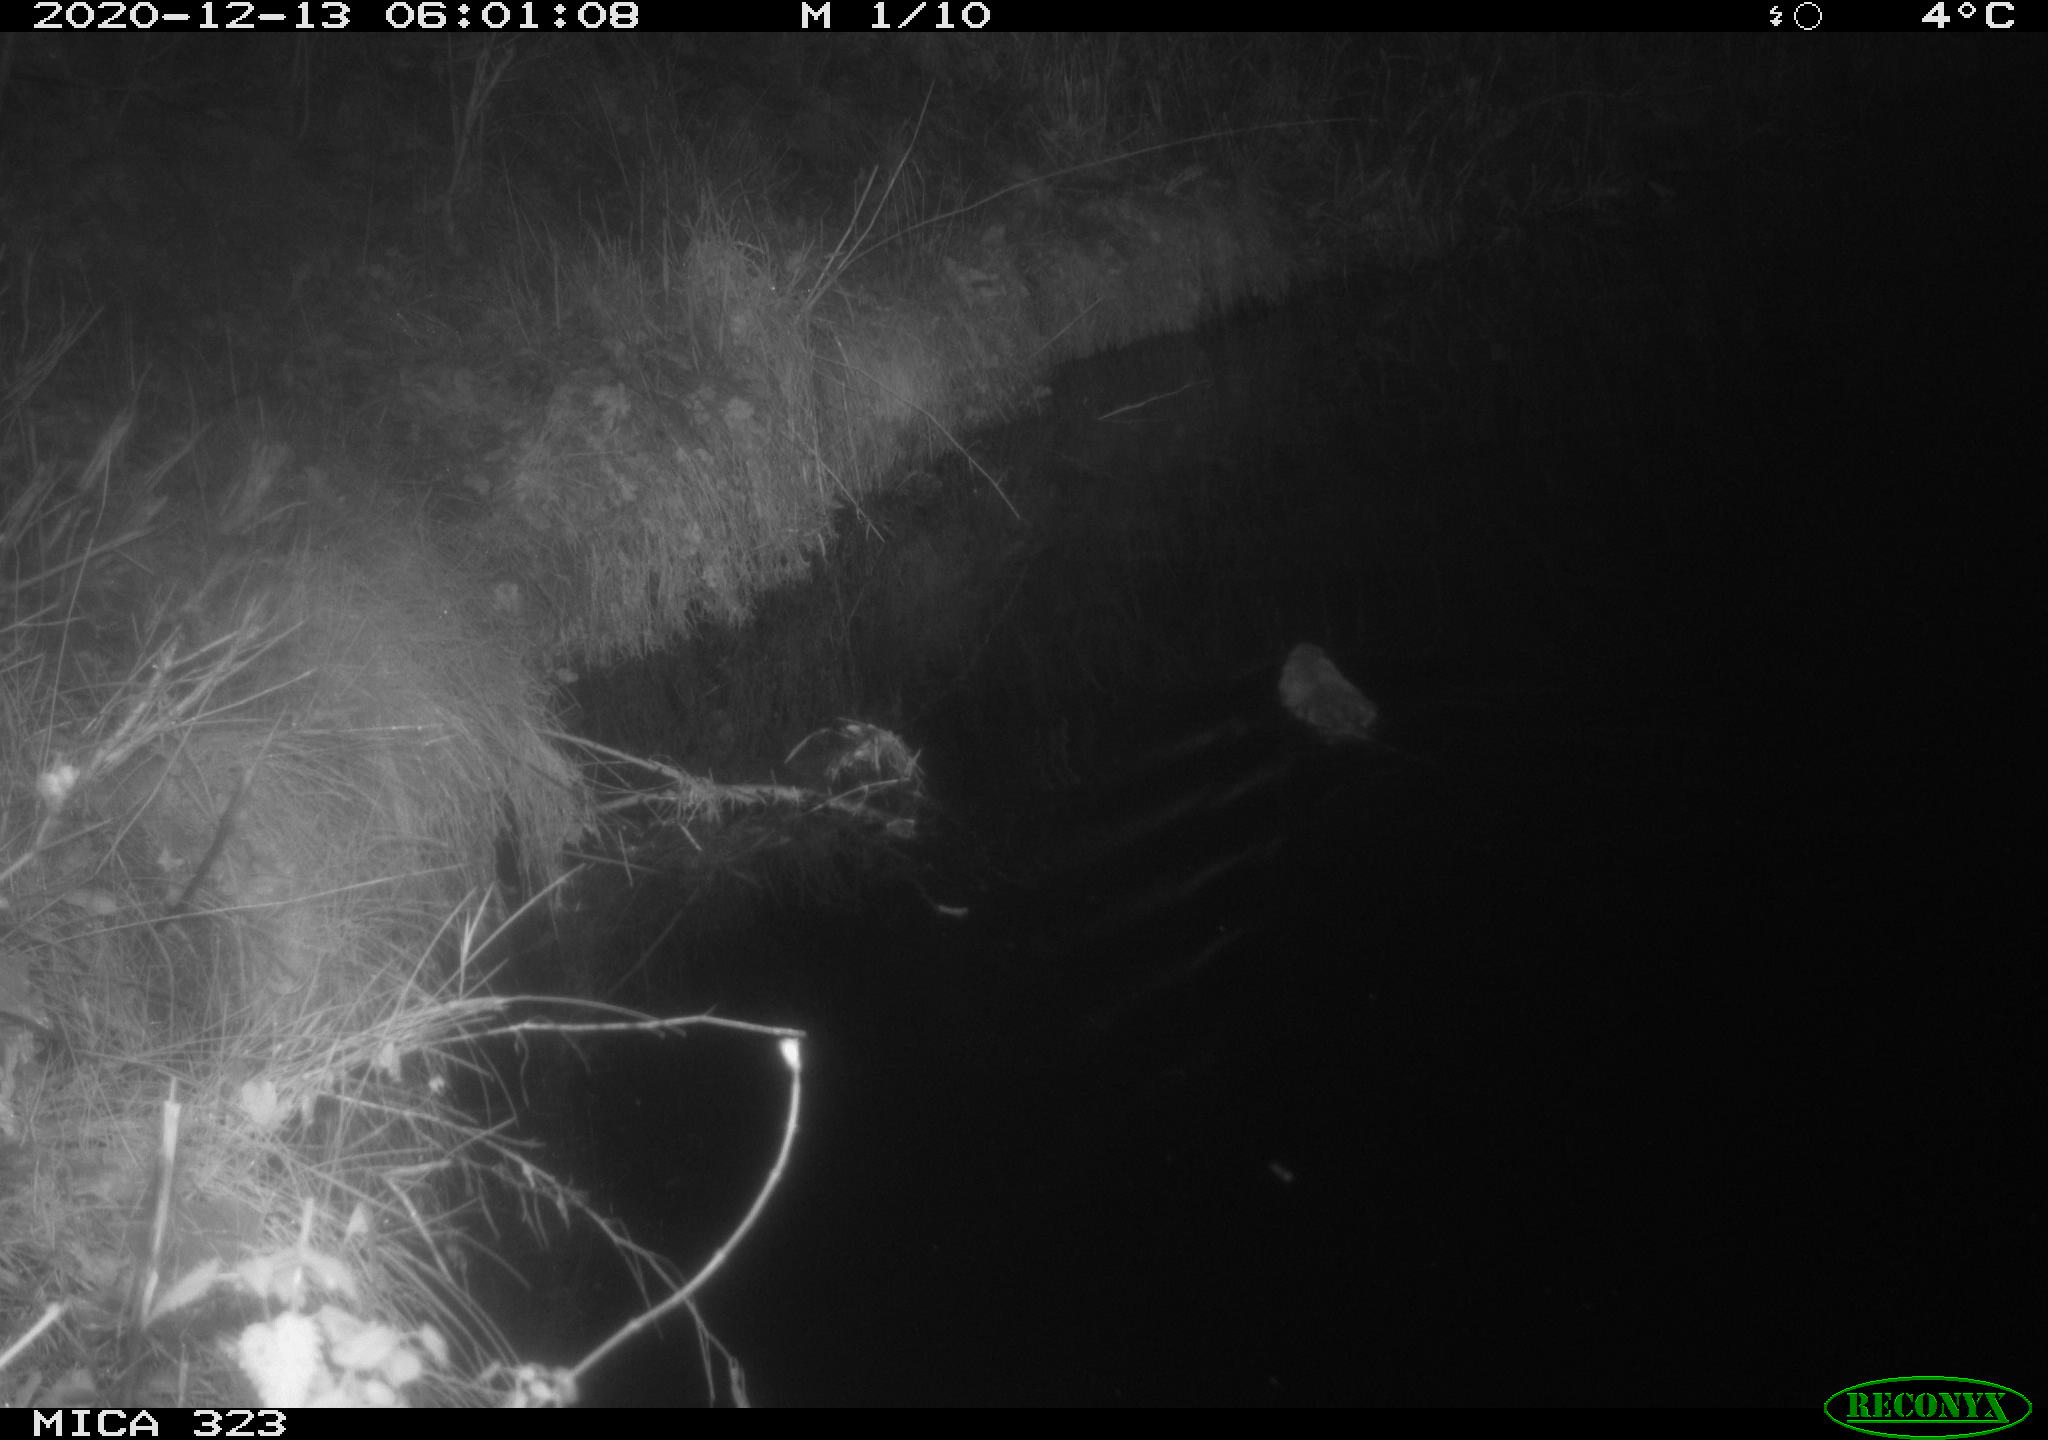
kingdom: Animalia
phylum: Chordata
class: Mammalia
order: Rodentia
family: Myocastoridae
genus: Myocastor
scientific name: Myocastor coypus
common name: Coypu
